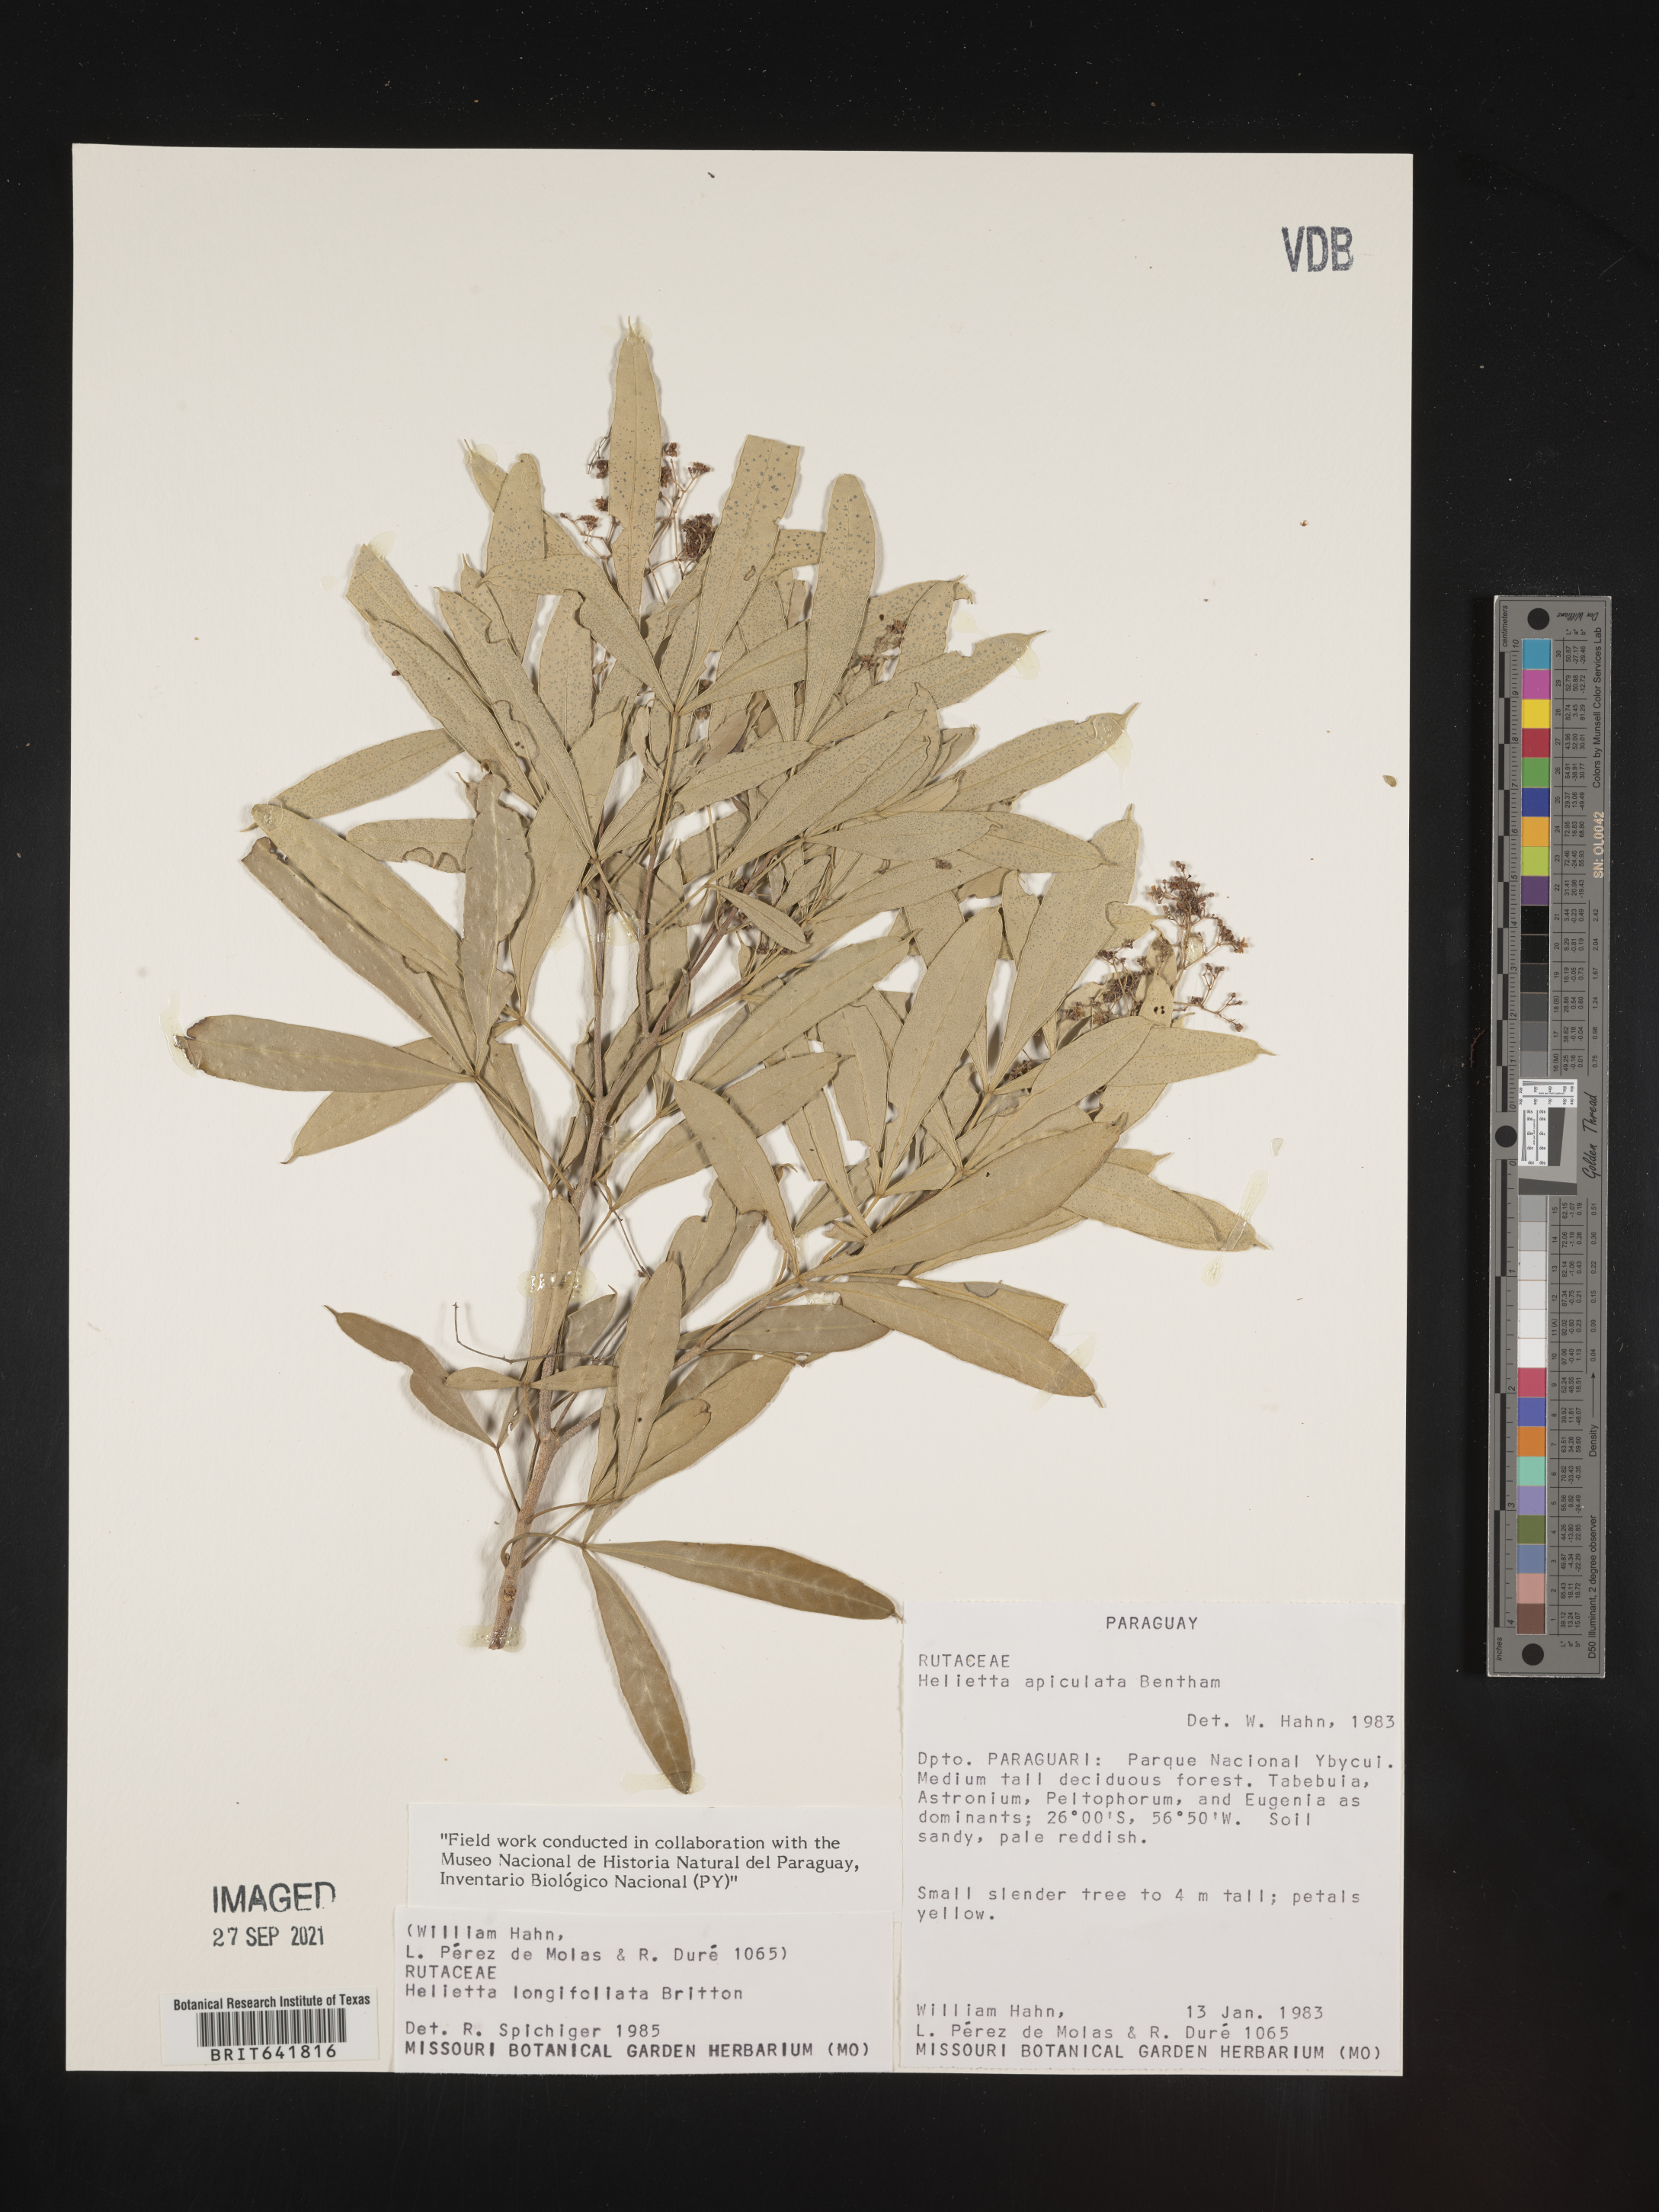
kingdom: Plantae
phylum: Tracheophyta
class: Magnoliopsida
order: Sapindales
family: Rutaceae
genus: Helietta
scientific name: Helietta
